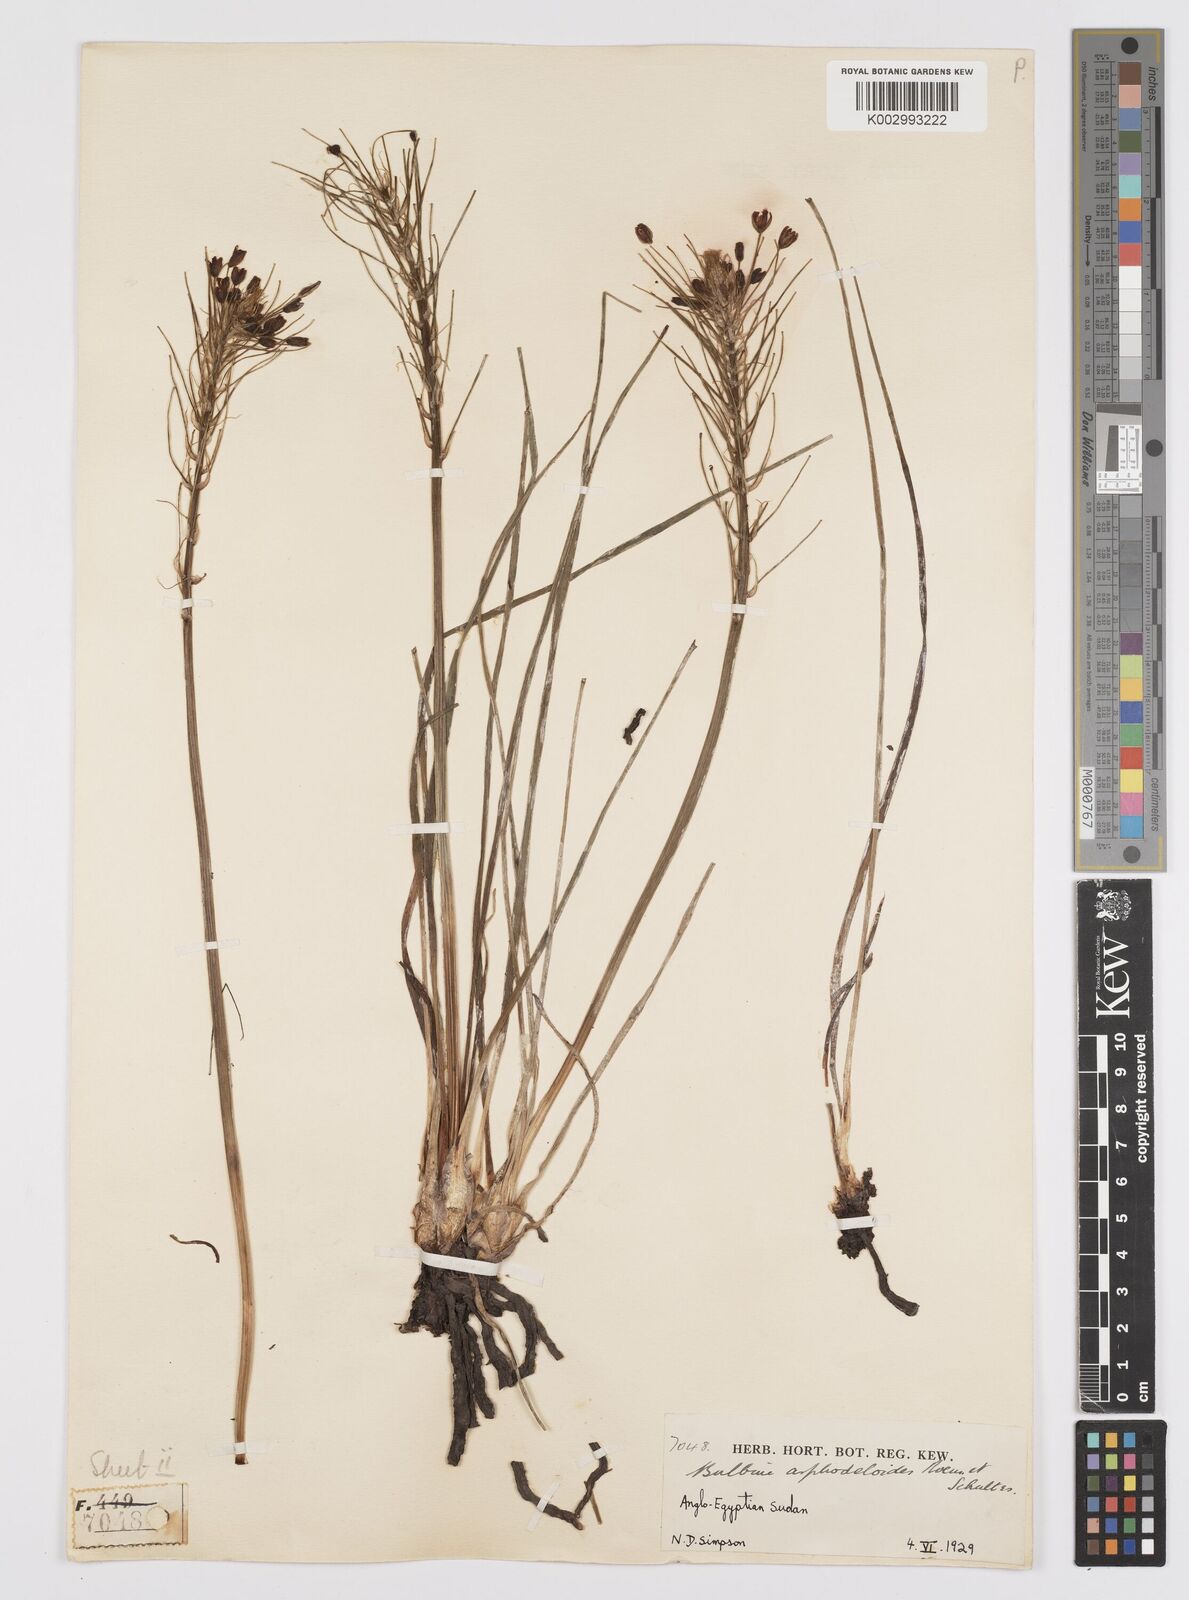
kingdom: Plantae
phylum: Tracheophyta
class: Liliopsida
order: Asparagales
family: Asphodelaceae
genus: Bulbine
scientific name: Bulbine abyssinica
